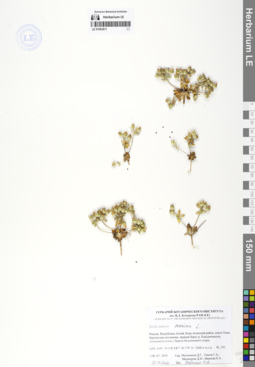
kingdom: Plantae
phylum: Tracheophyta
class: Magnoliopsida
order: Ericales
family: Primulaceae
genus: Androsace
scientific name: Androsace maxima
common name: Annual androsace
